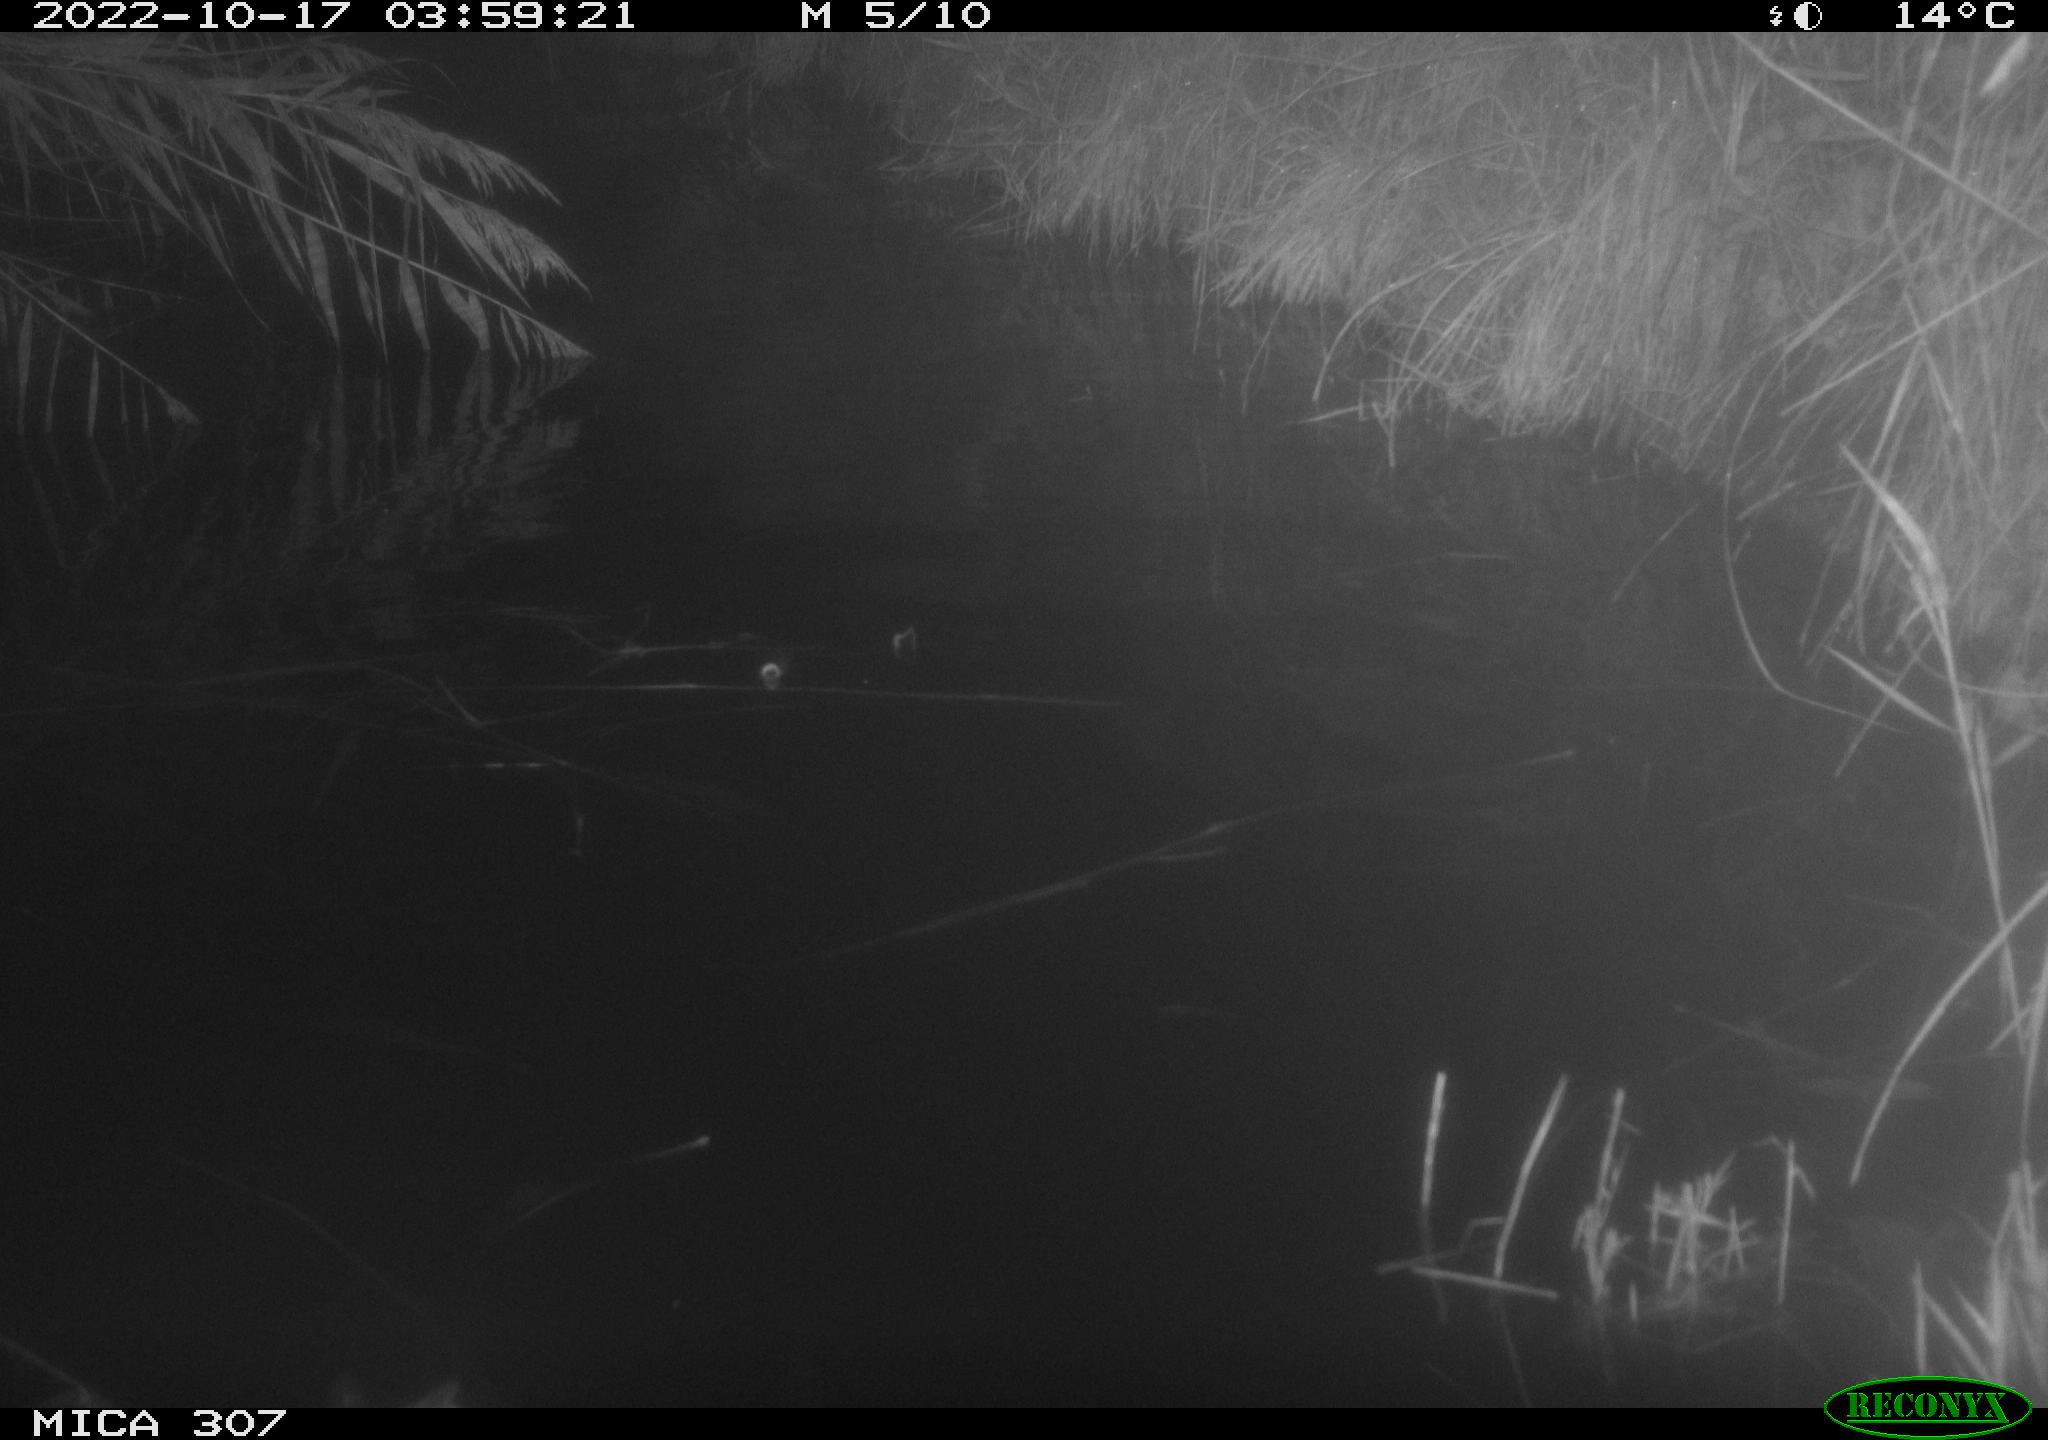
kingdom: Animalia
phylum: Chordata
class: Aves
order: Anseriformes
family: Anatidae
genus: Anas
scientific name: Anas
